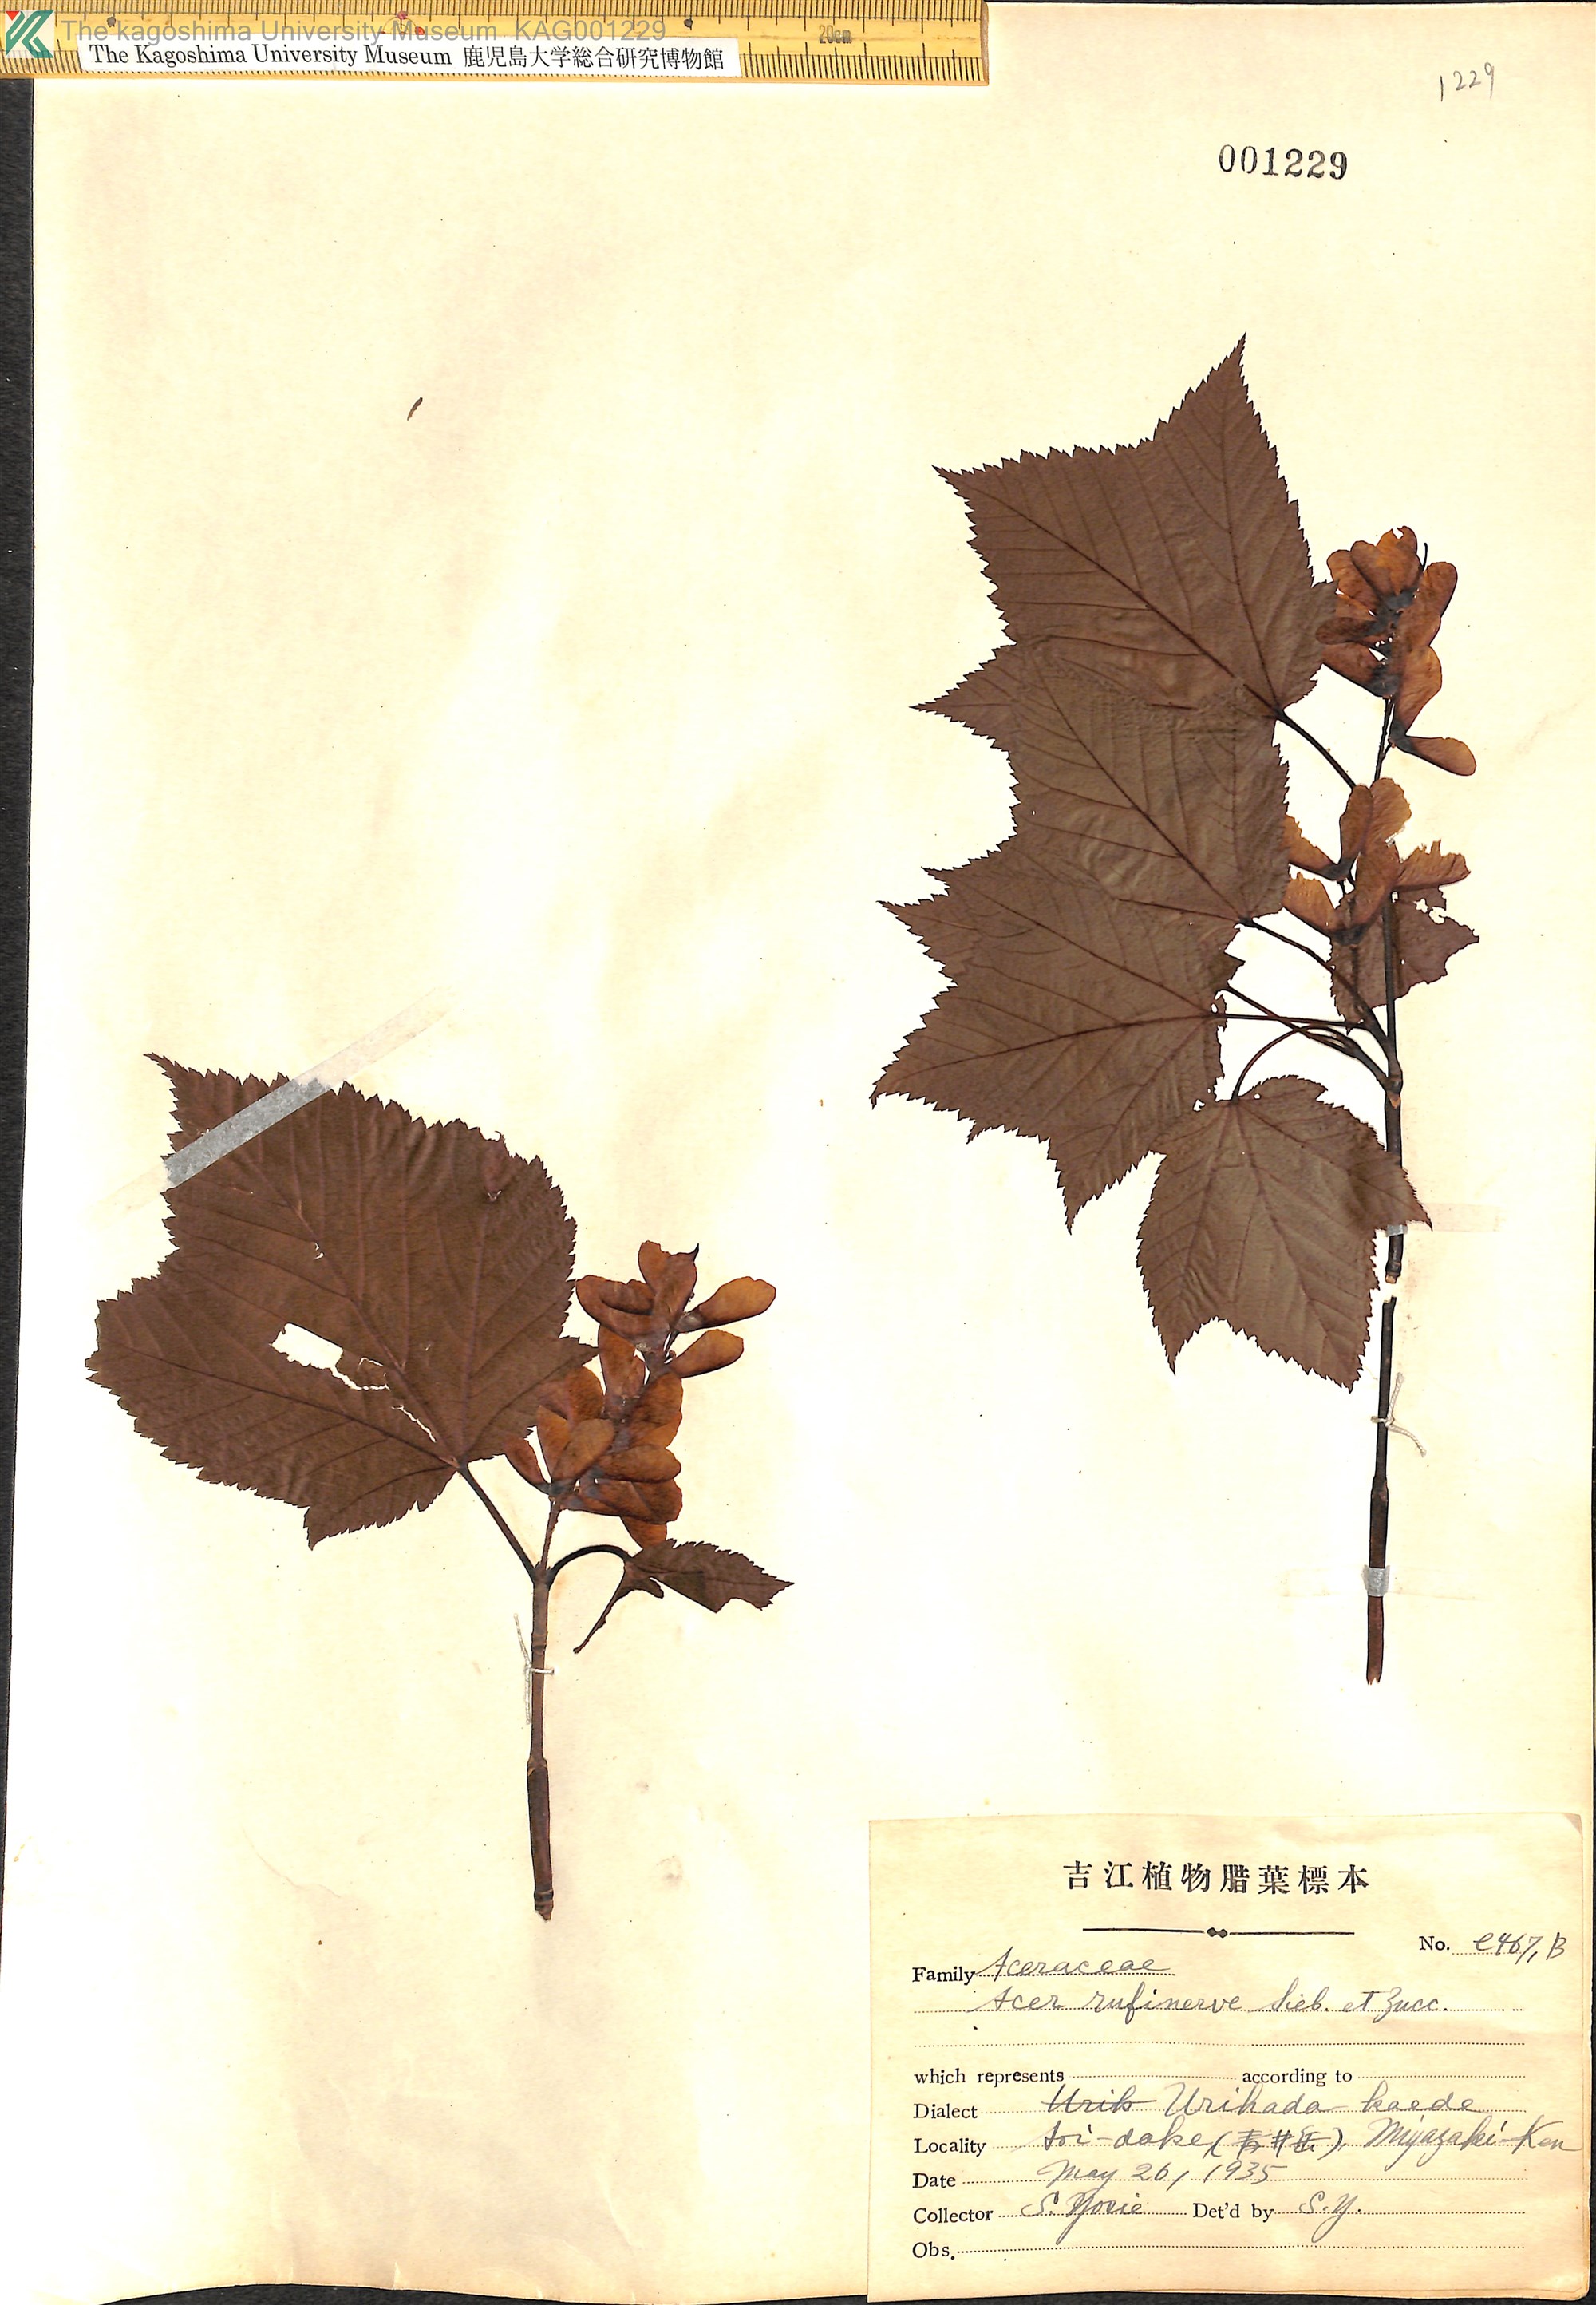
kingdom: Plantae
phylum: Tracheophyta
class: Magnoliopsida
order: Sapindales
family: Sapindaceae
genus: Acer
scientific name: Acer rufinerve
